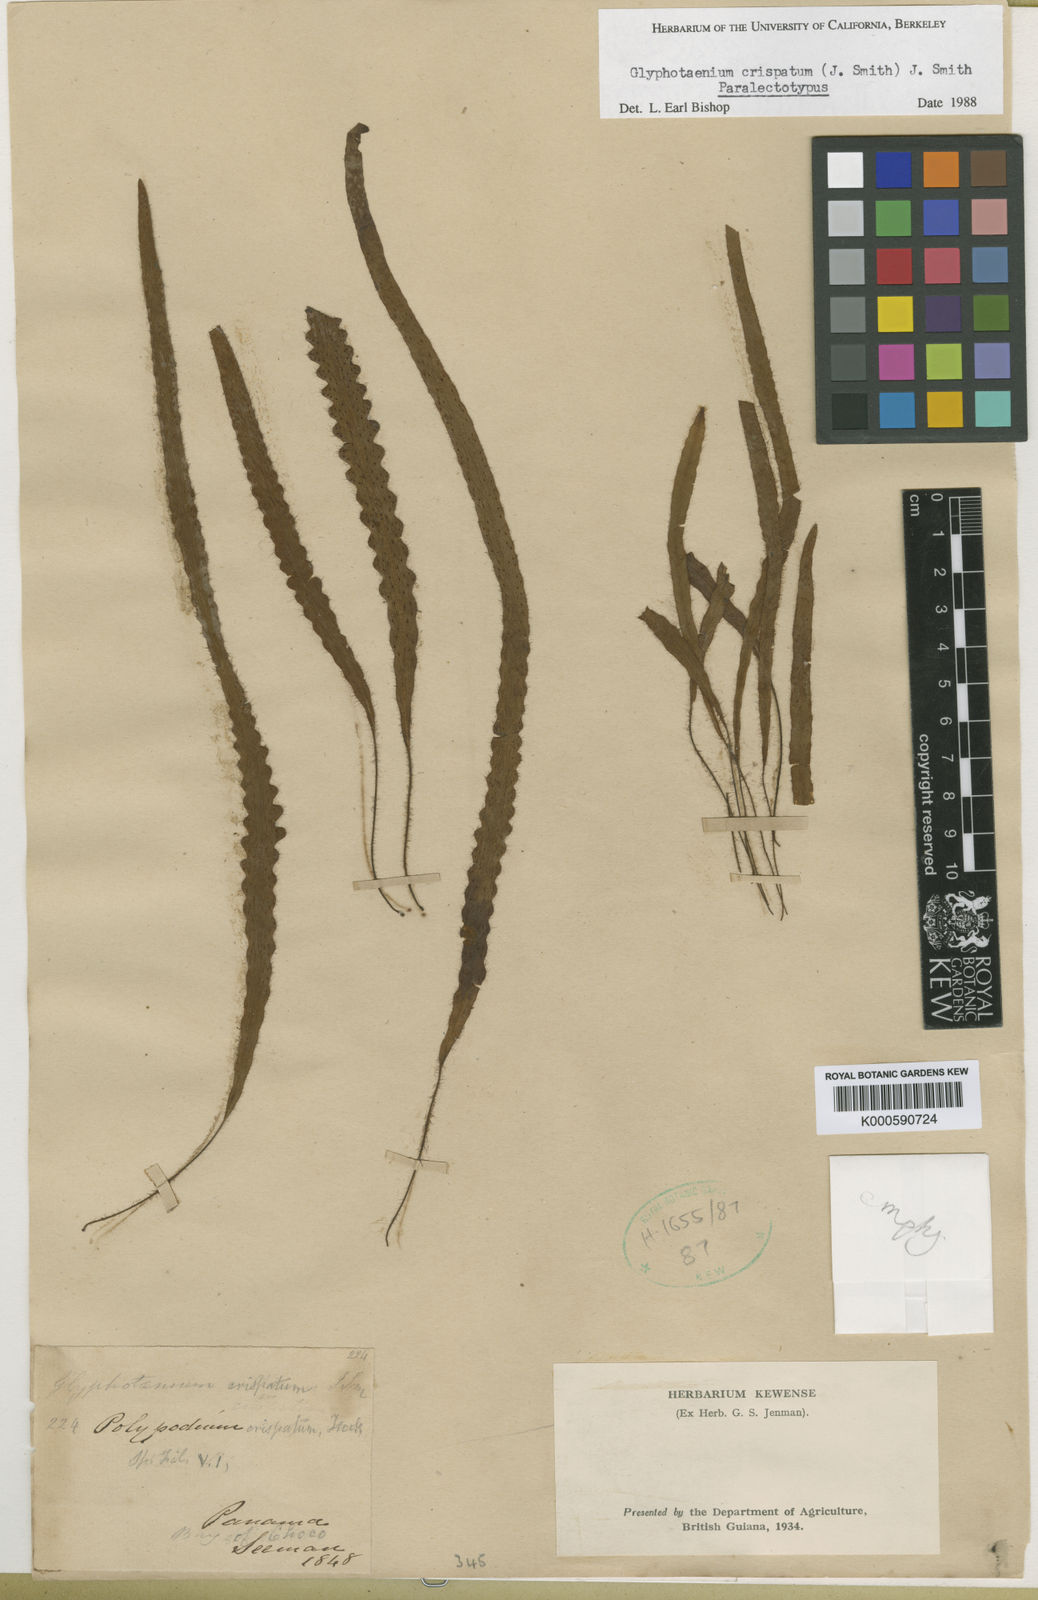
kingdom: Plantae
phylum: Tracheophyta
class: Polypodiopsida
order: Polypodiales
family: Polypodiaceae
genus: Enterosora
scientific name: Enterosora
